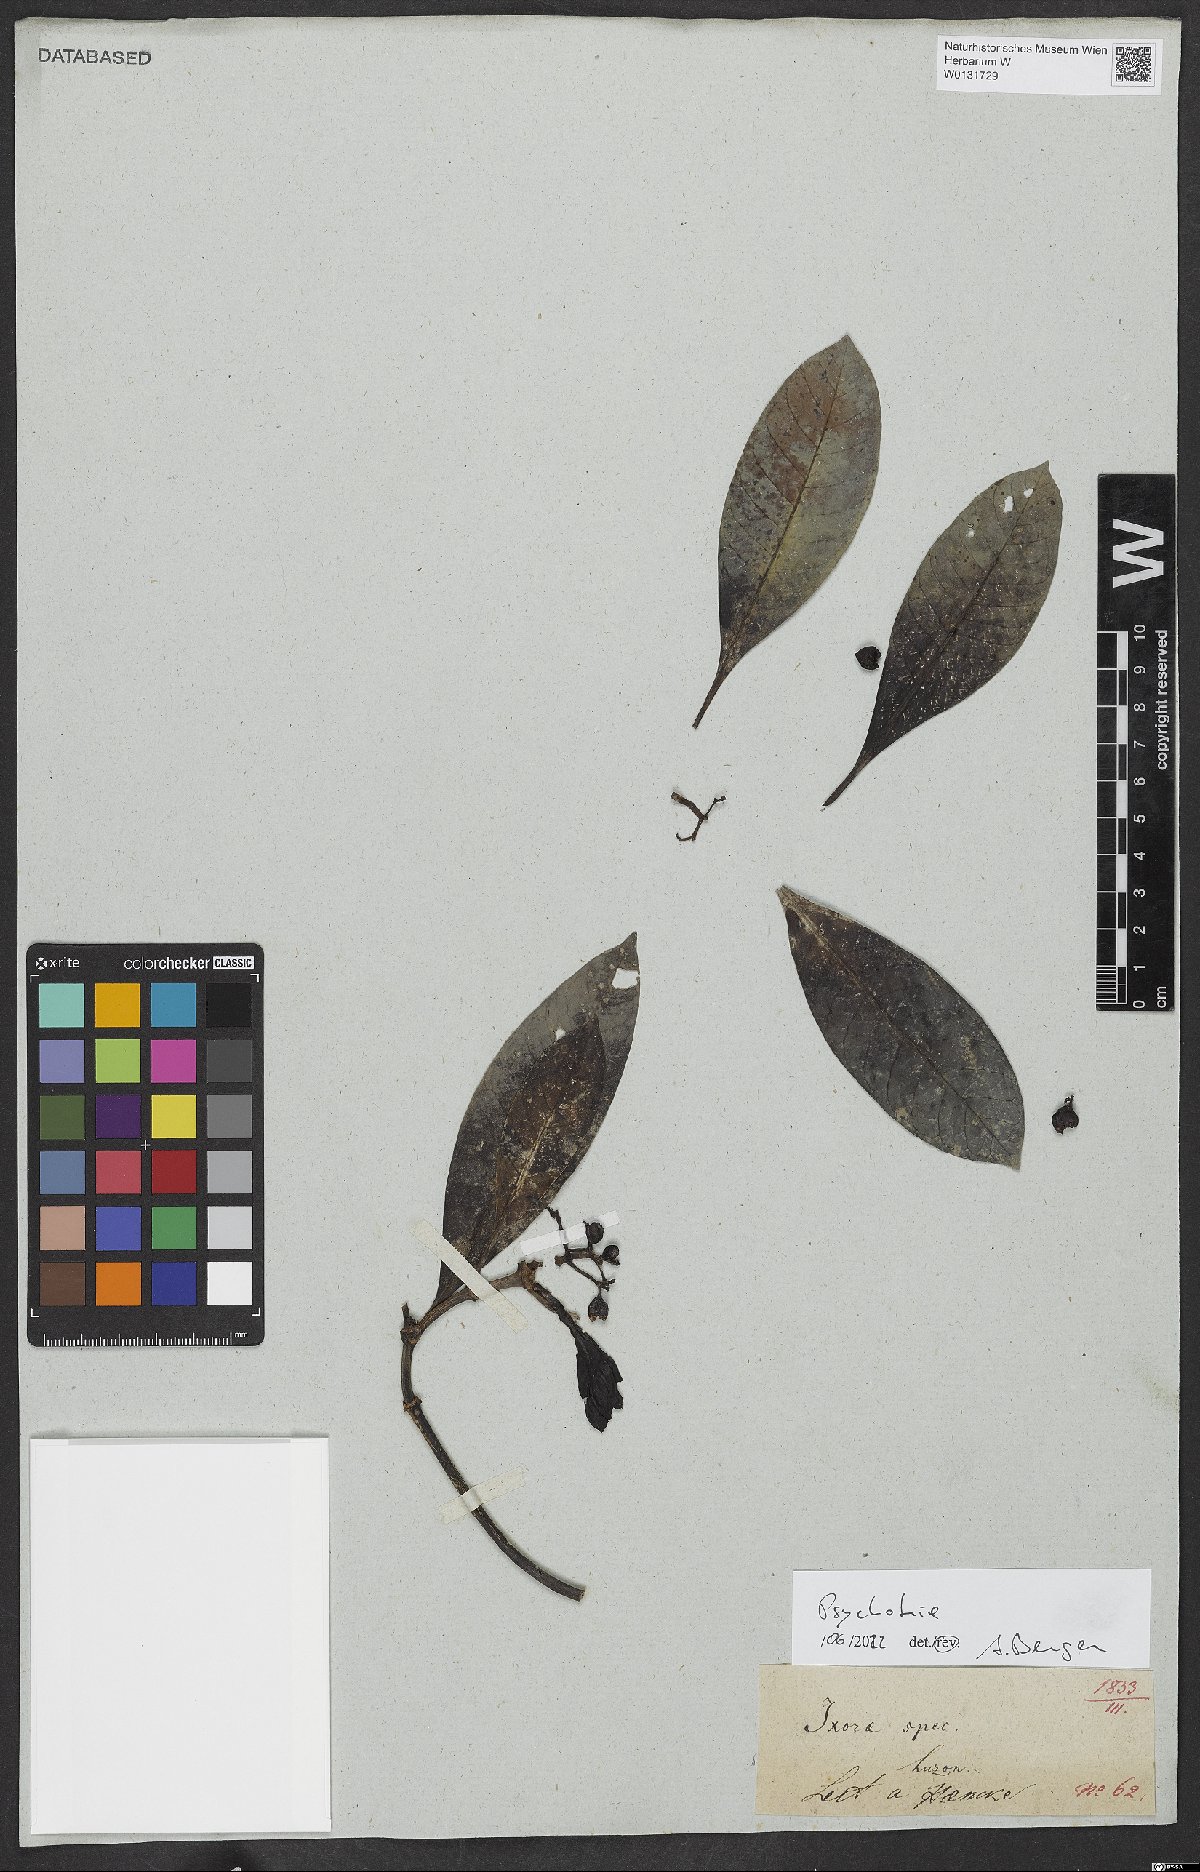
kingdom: Plantae
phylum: Tracheophyta
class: Magnoliopsida
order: Gentianales
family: Rubiaceae
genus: Psychotria
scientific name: Psychotria
